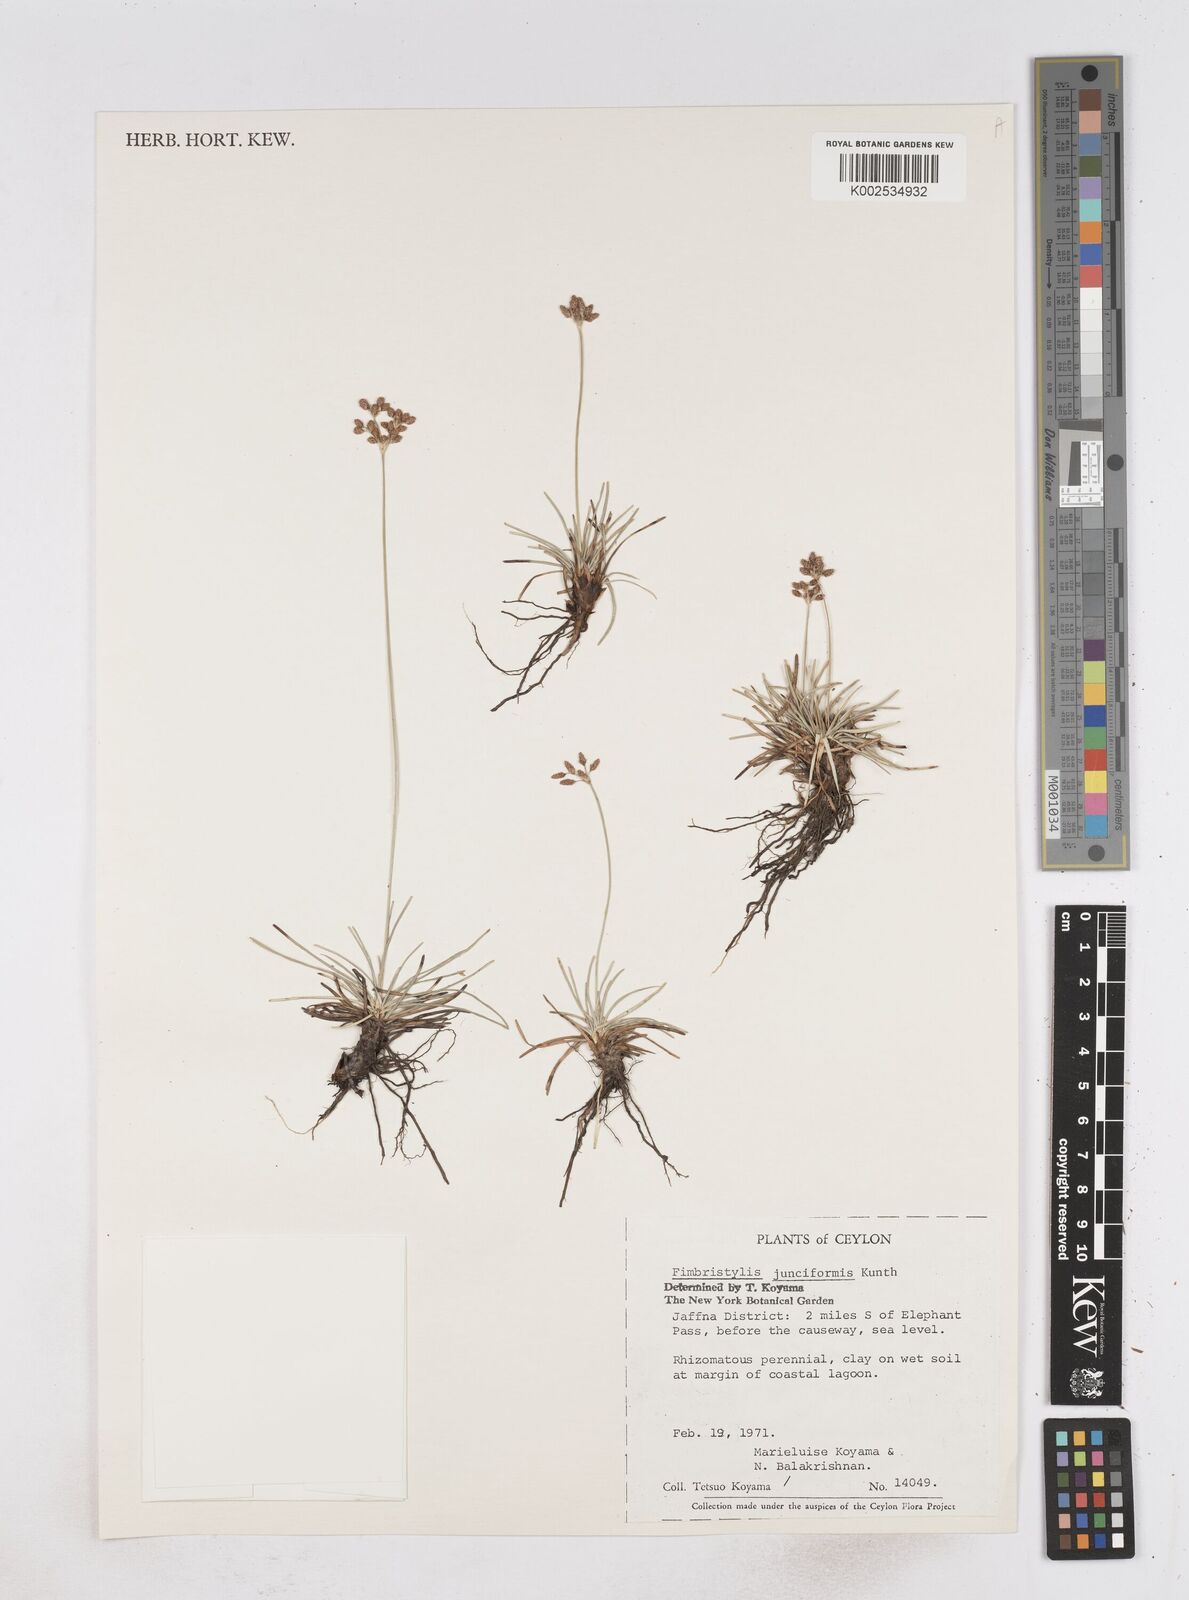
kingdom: Plantae
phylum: Tracheophyta
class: Liliopsida
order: Poales
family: Cyperaceae
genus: Fimbristylis
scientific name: Fimbristylis falcata
